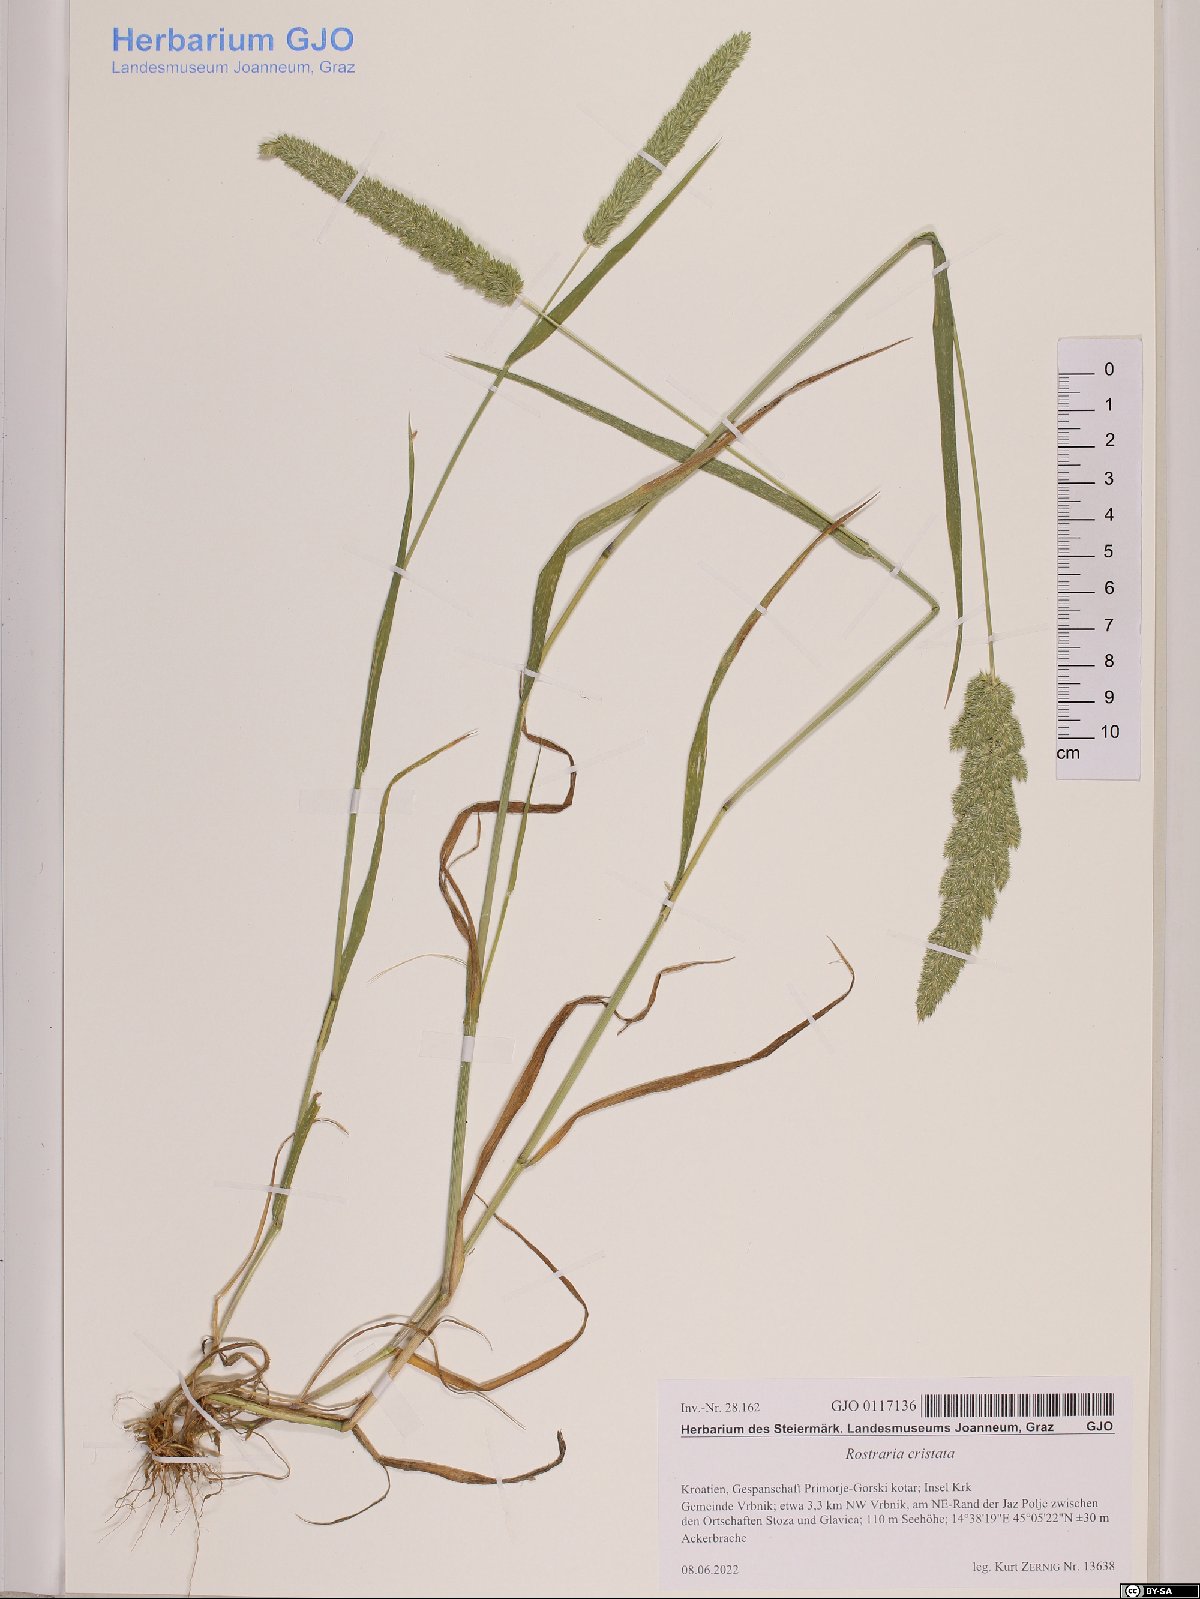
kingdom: Plantae
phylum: Tracheophyta
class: Liliopsida
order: Poales
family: Poaceae
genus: Rostraria
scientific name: Rostraria cristata
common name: Mediterranean hair-grass
